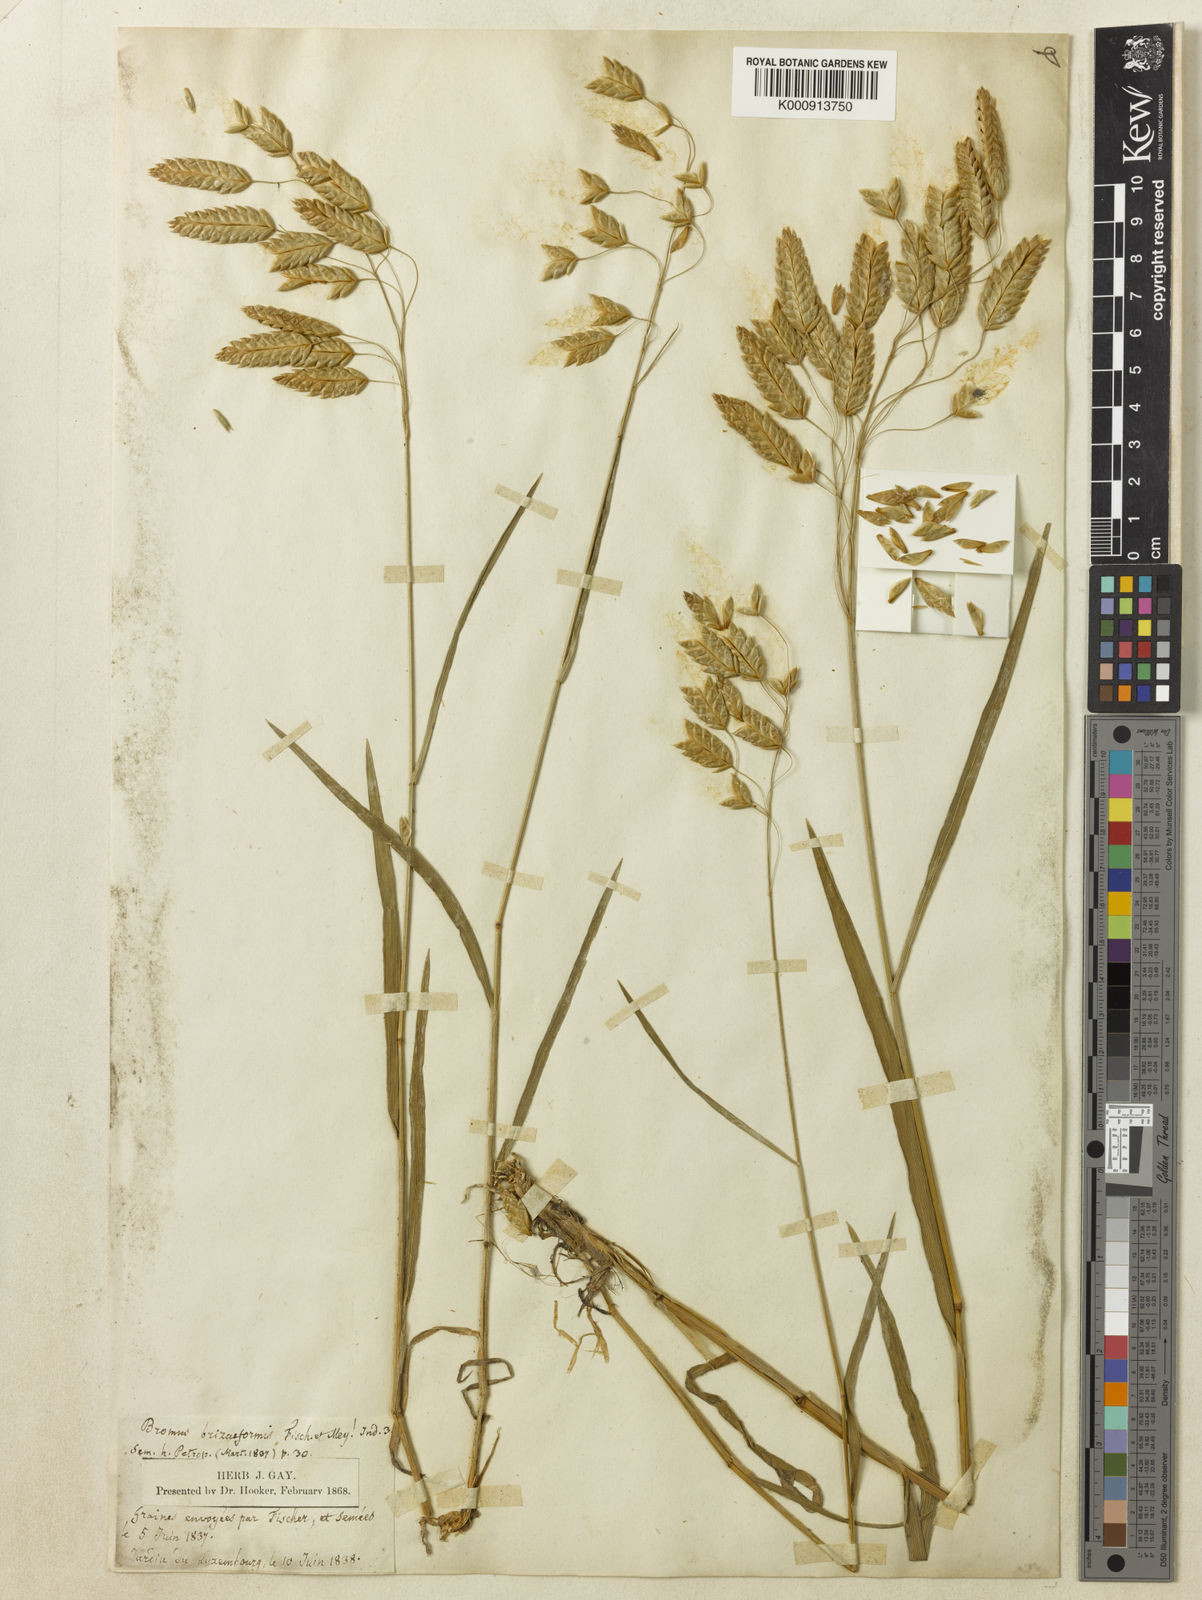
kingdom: Plantae
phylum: Tracheophyta
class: Liliopsida
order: Poales
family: Poaceae
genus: Bromus
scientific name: Bromus briziformis
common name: Rattlesnake brome
